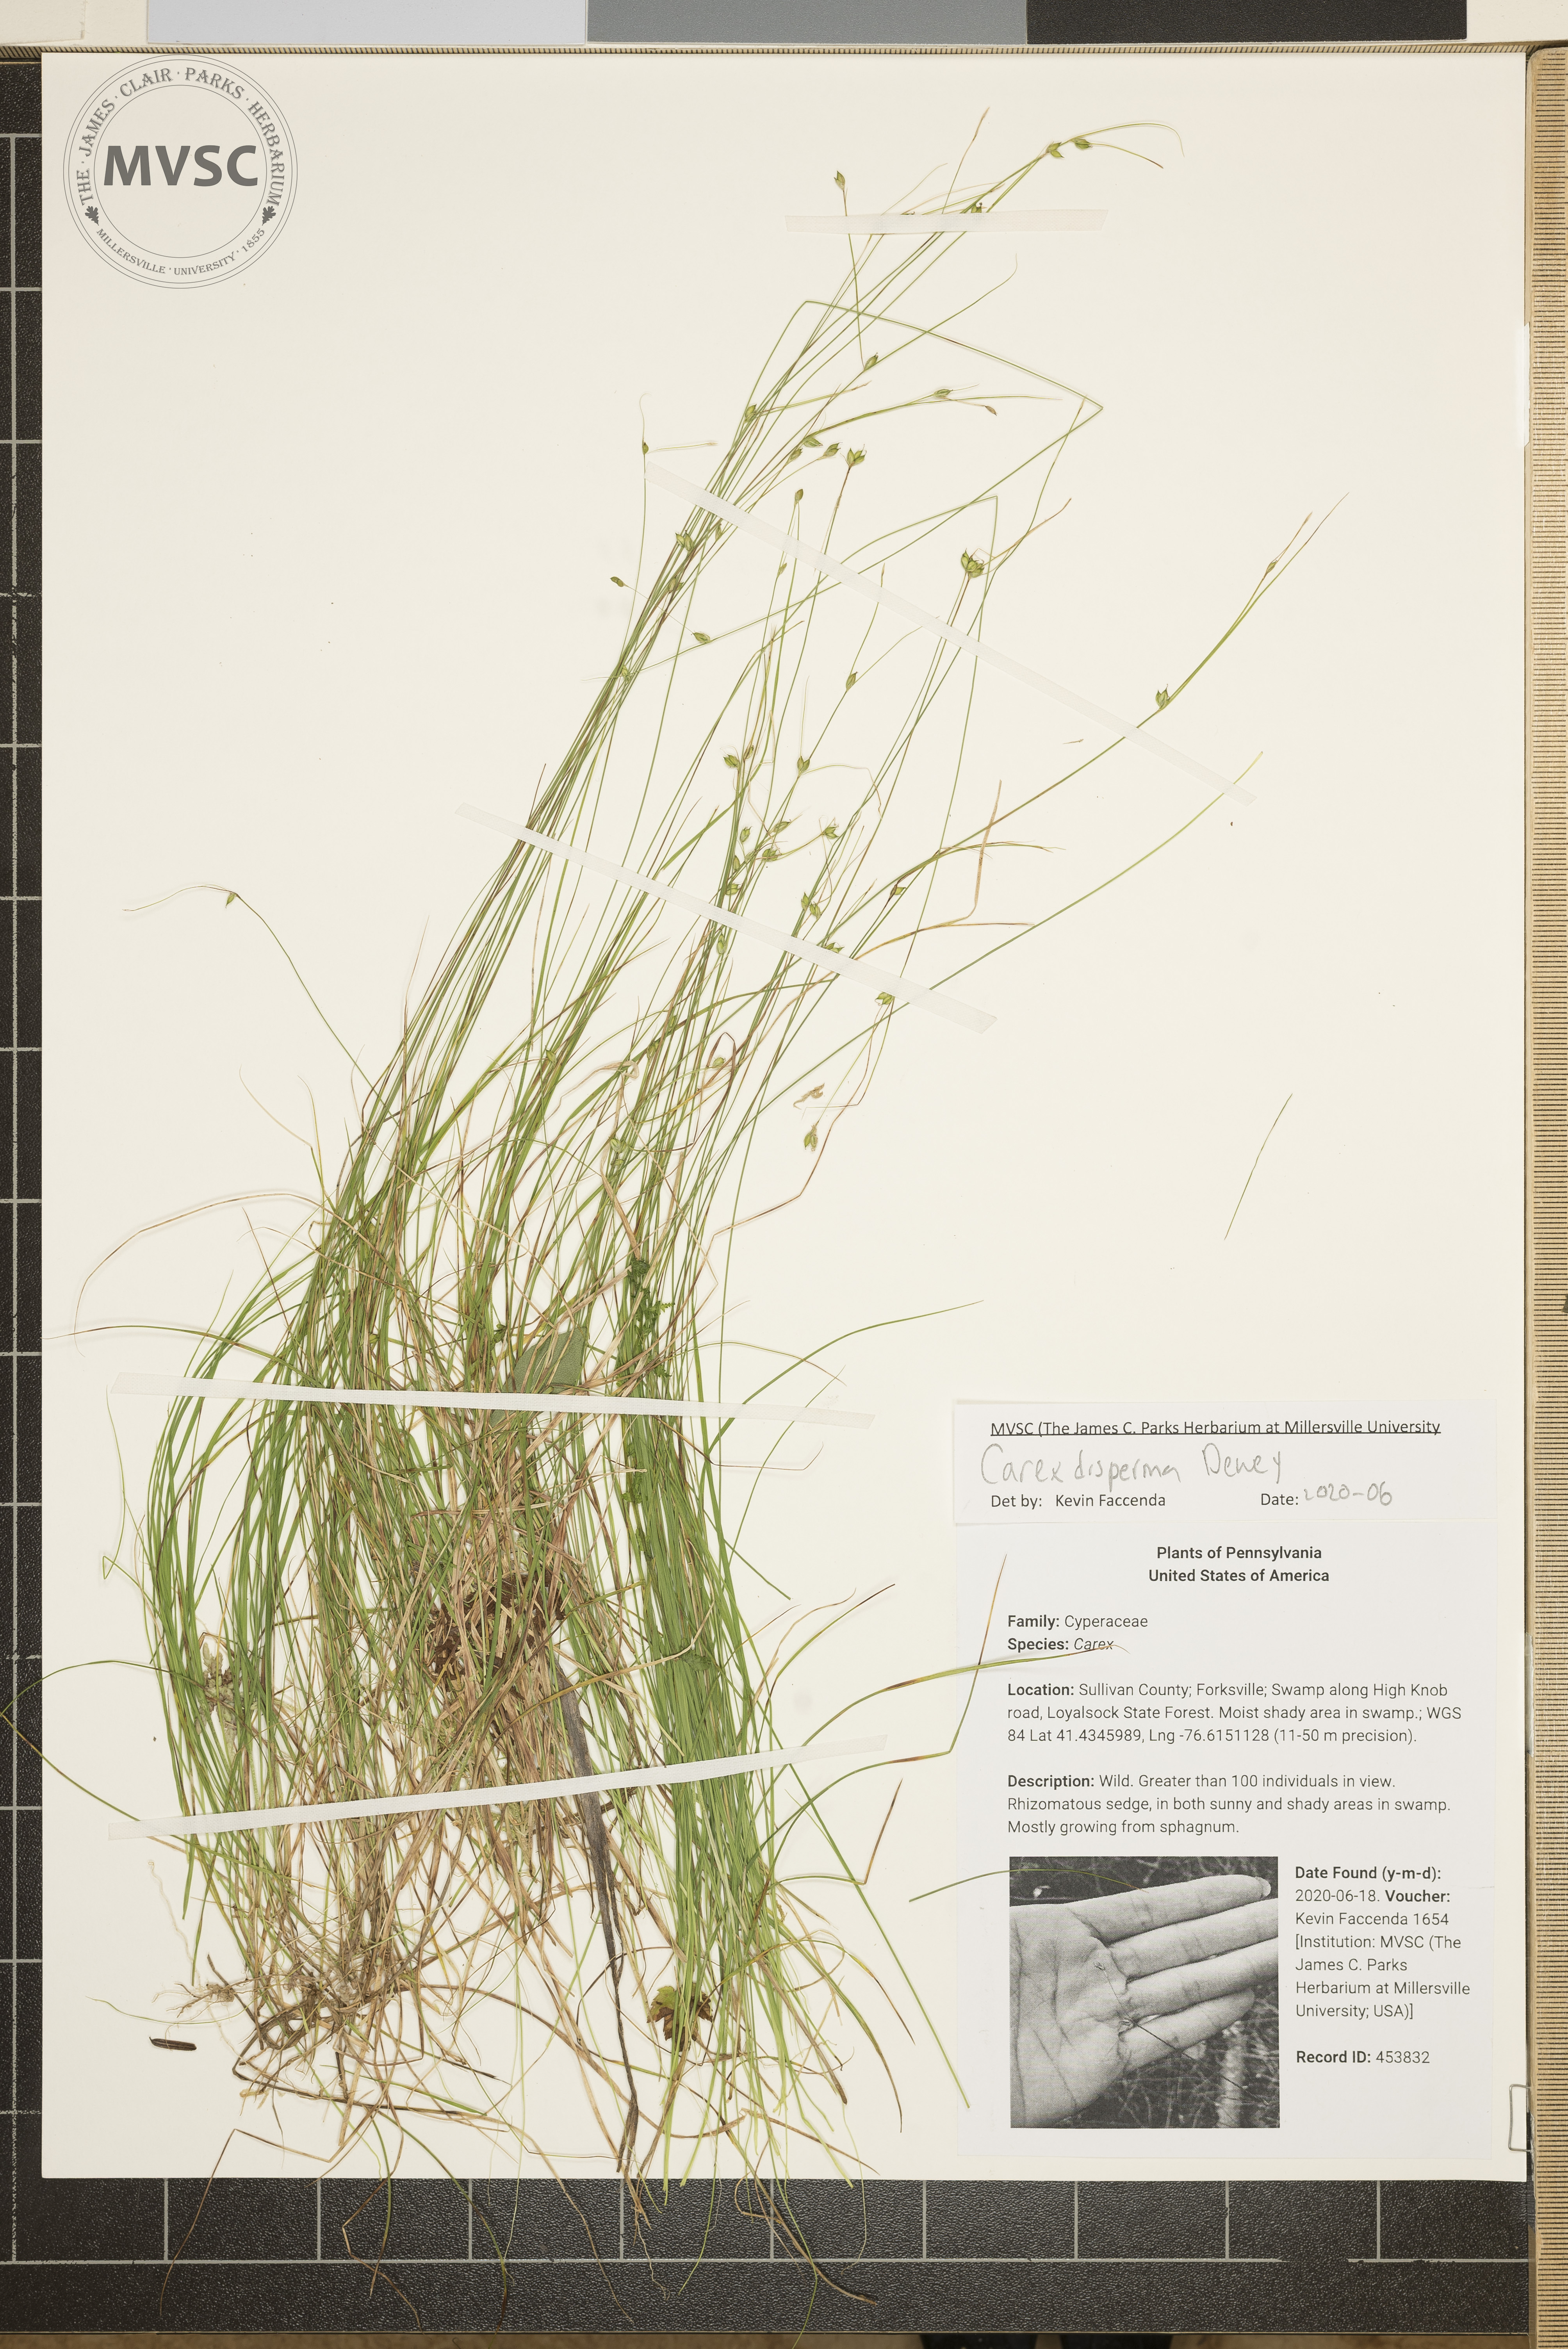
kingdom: Plantae
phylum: Tracheophyta
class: Liliopsida
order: Poales
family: Cyperaceae
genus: Carex
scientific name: Carex disperma
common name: Short-leaved sedge
